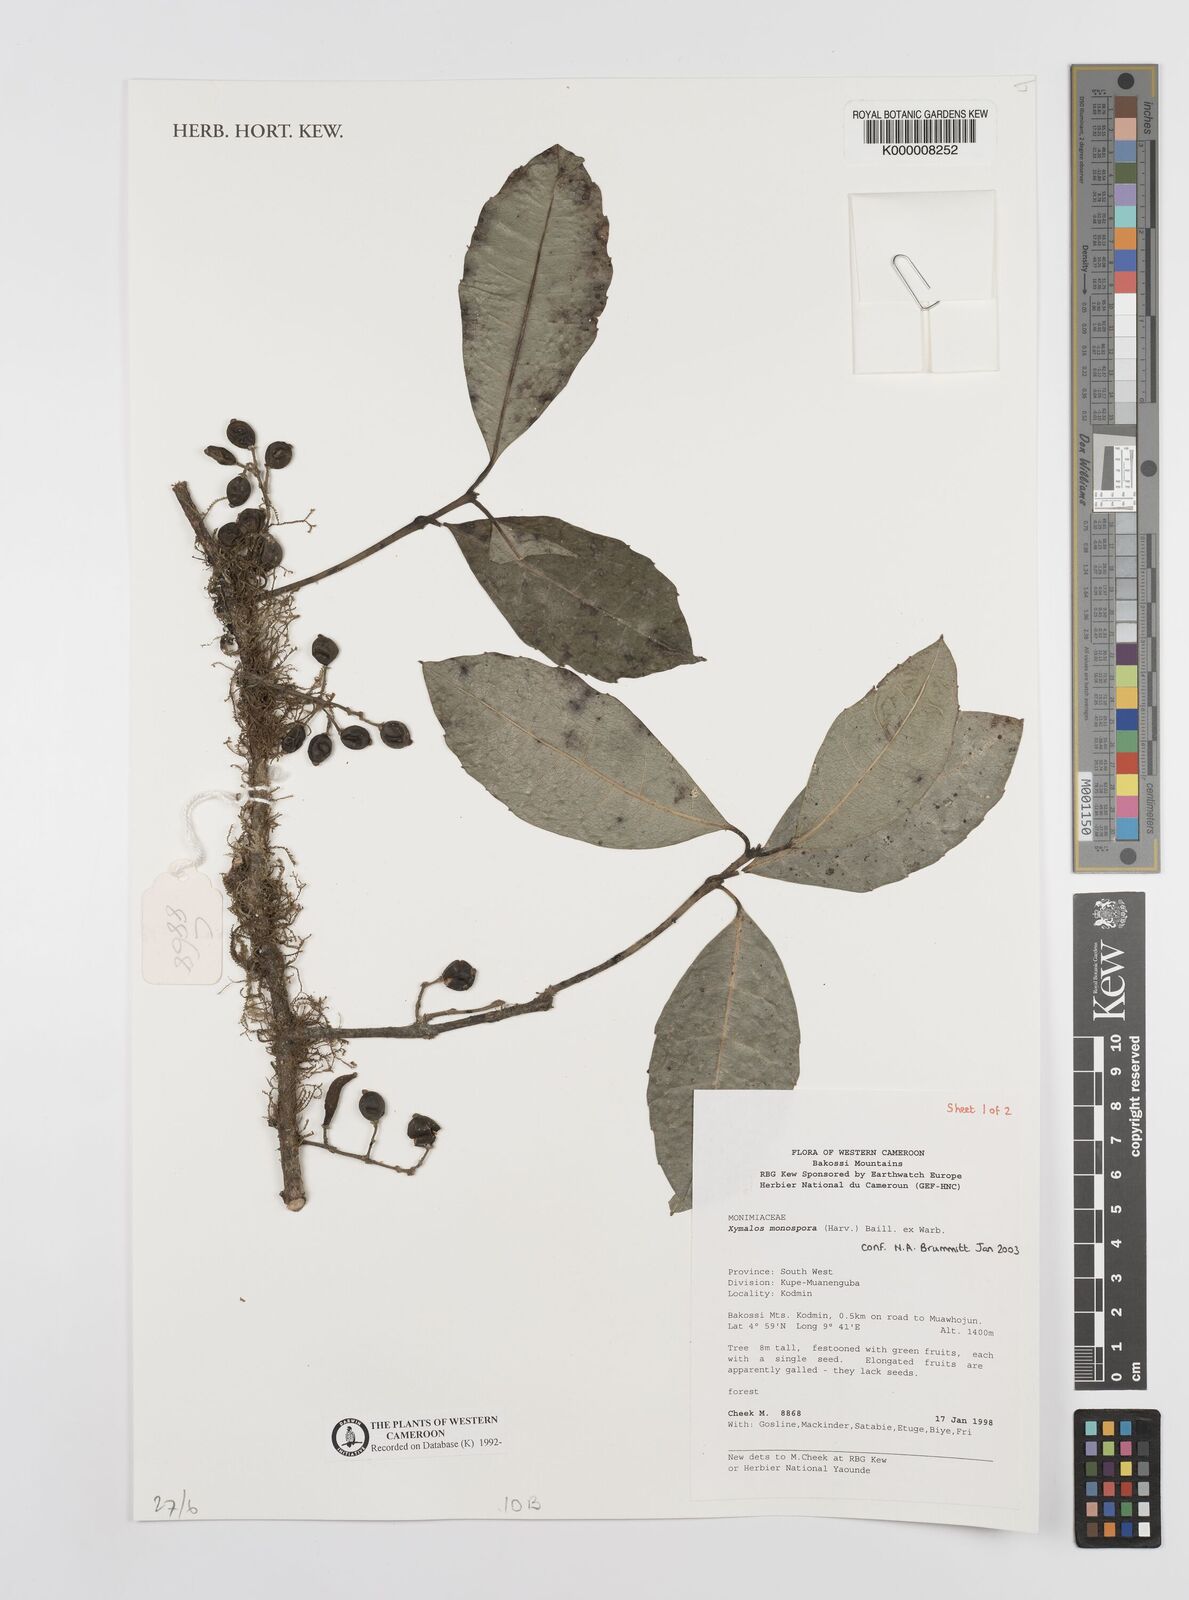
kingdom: Plantae
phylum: Tracheophyta
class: Magnoliopsida
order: Laurales
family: Monimiaceae
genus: Xymalos
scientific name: Xymalos
